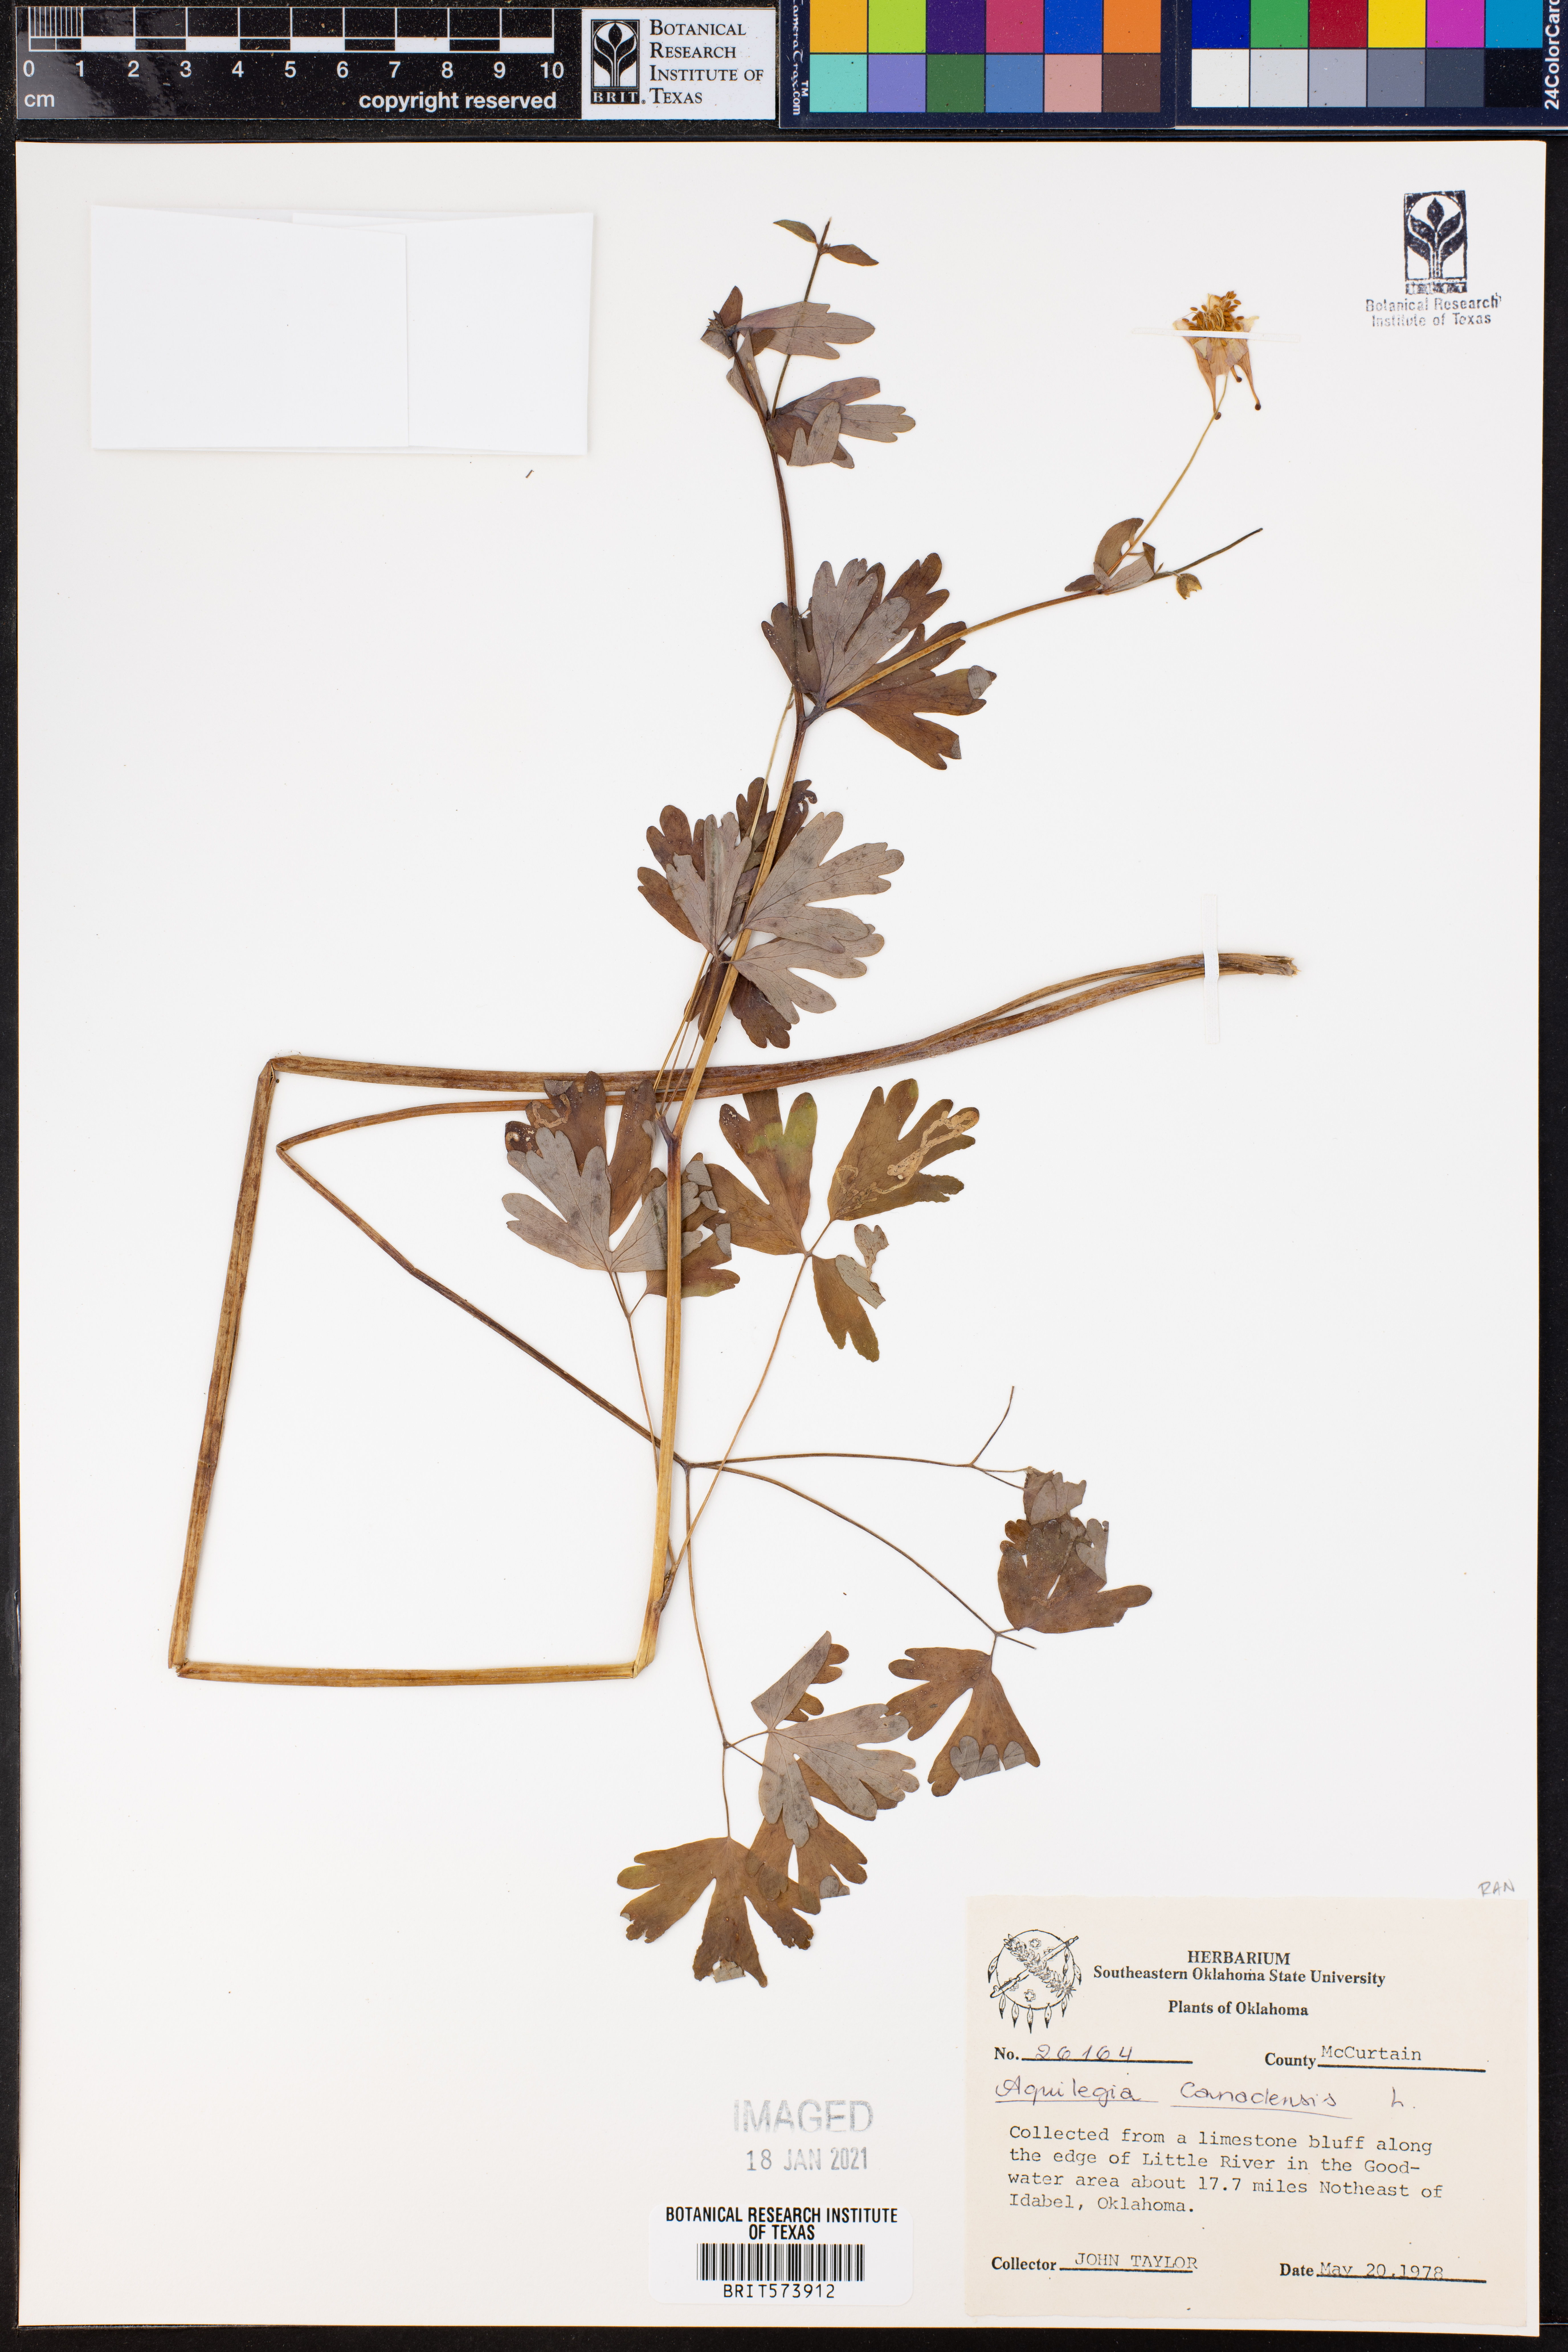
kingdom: Plantae
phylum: Tracheophyta
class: Magnoliopsida
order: Ranunculales
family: Ranunculaceae
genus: Aquilegia
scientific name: Aquilegia canadensis
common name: American columbine
